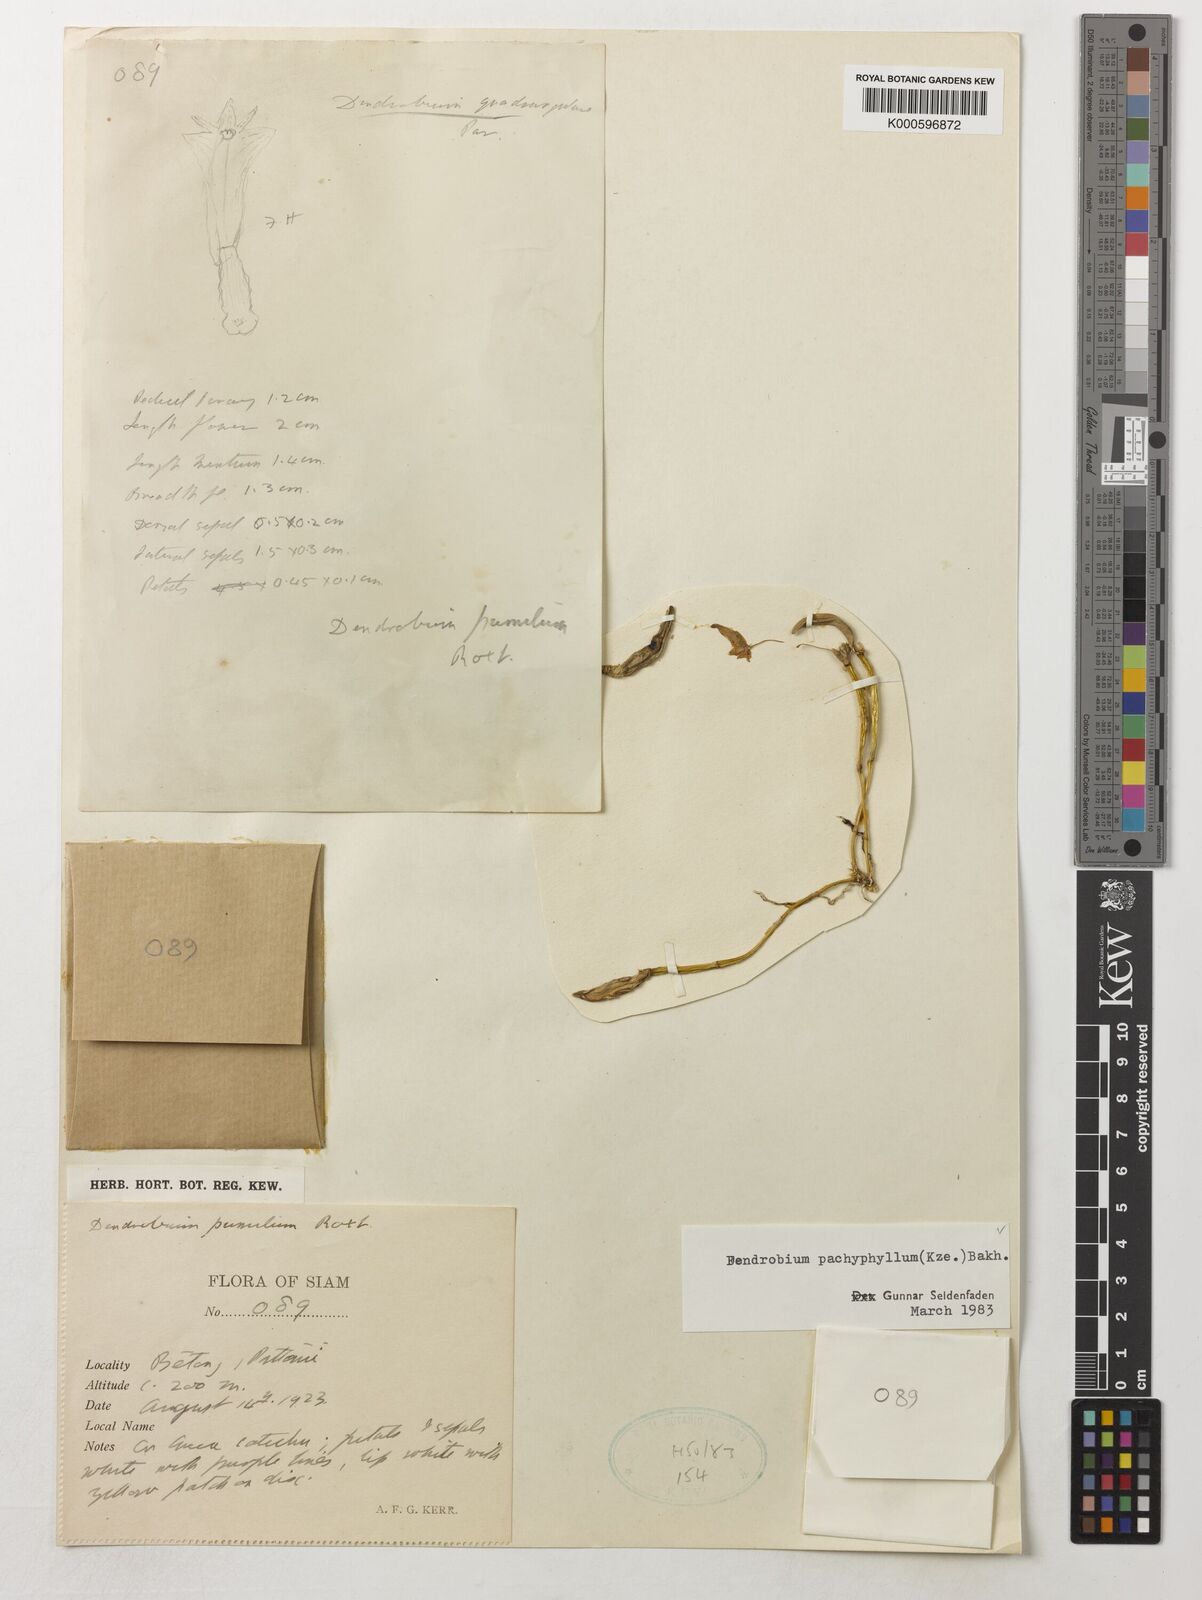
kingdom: Plantae
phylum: Tracheophyta
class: Liliopsida
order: Asparagales
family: Orchidaceae
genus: Dendrobium
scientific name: Dendrobium pachyphyllum
